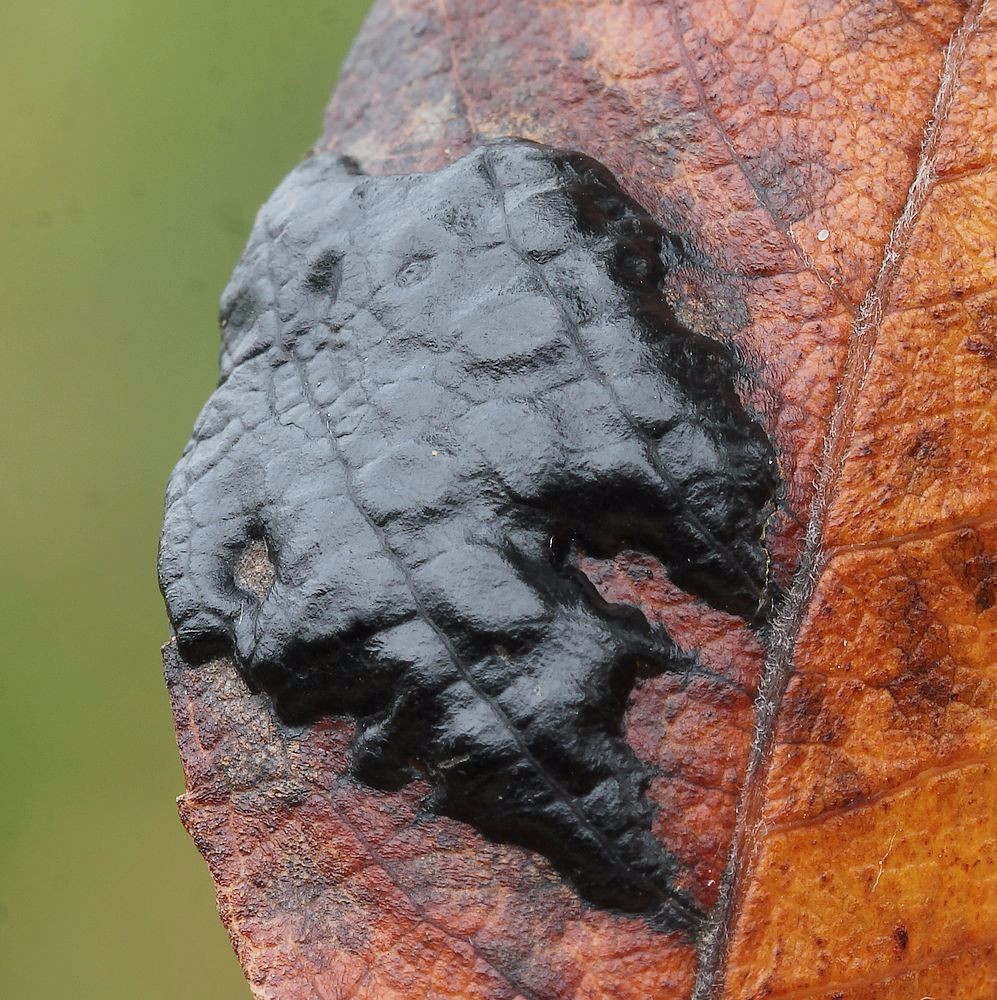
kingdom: Fungi
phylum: Ascomycota
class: Leotiomycetes
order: Rhytismatales
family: Rhytismataceae
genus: Rhytisma
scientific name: Rhytisma salicinum
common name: pile-rynkeplet
